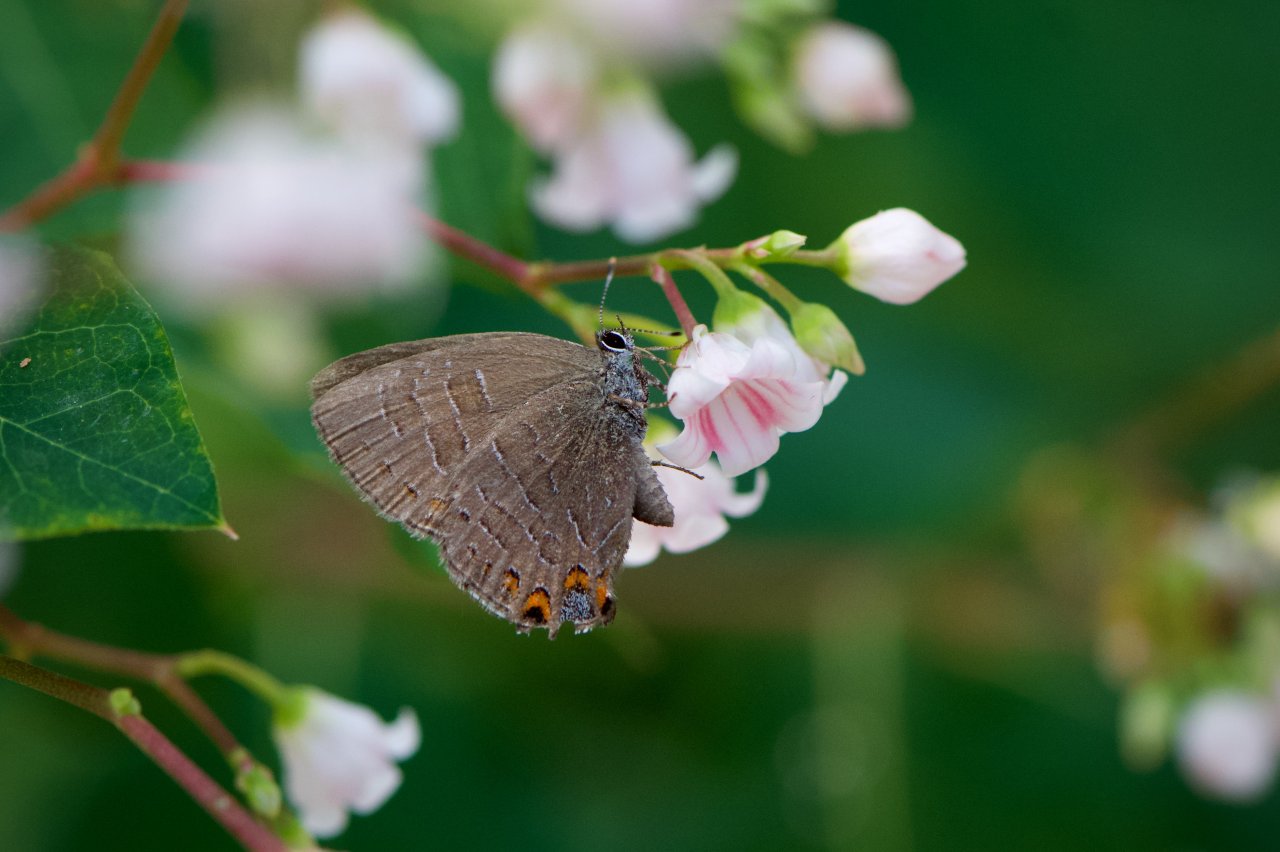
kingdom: Animalia
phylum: Arthropoda
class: Insecta
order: Lepidoptera
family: Lycaenidae
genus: Satyrium
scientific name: Satyrium liparops
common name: Striped Hairstreak
